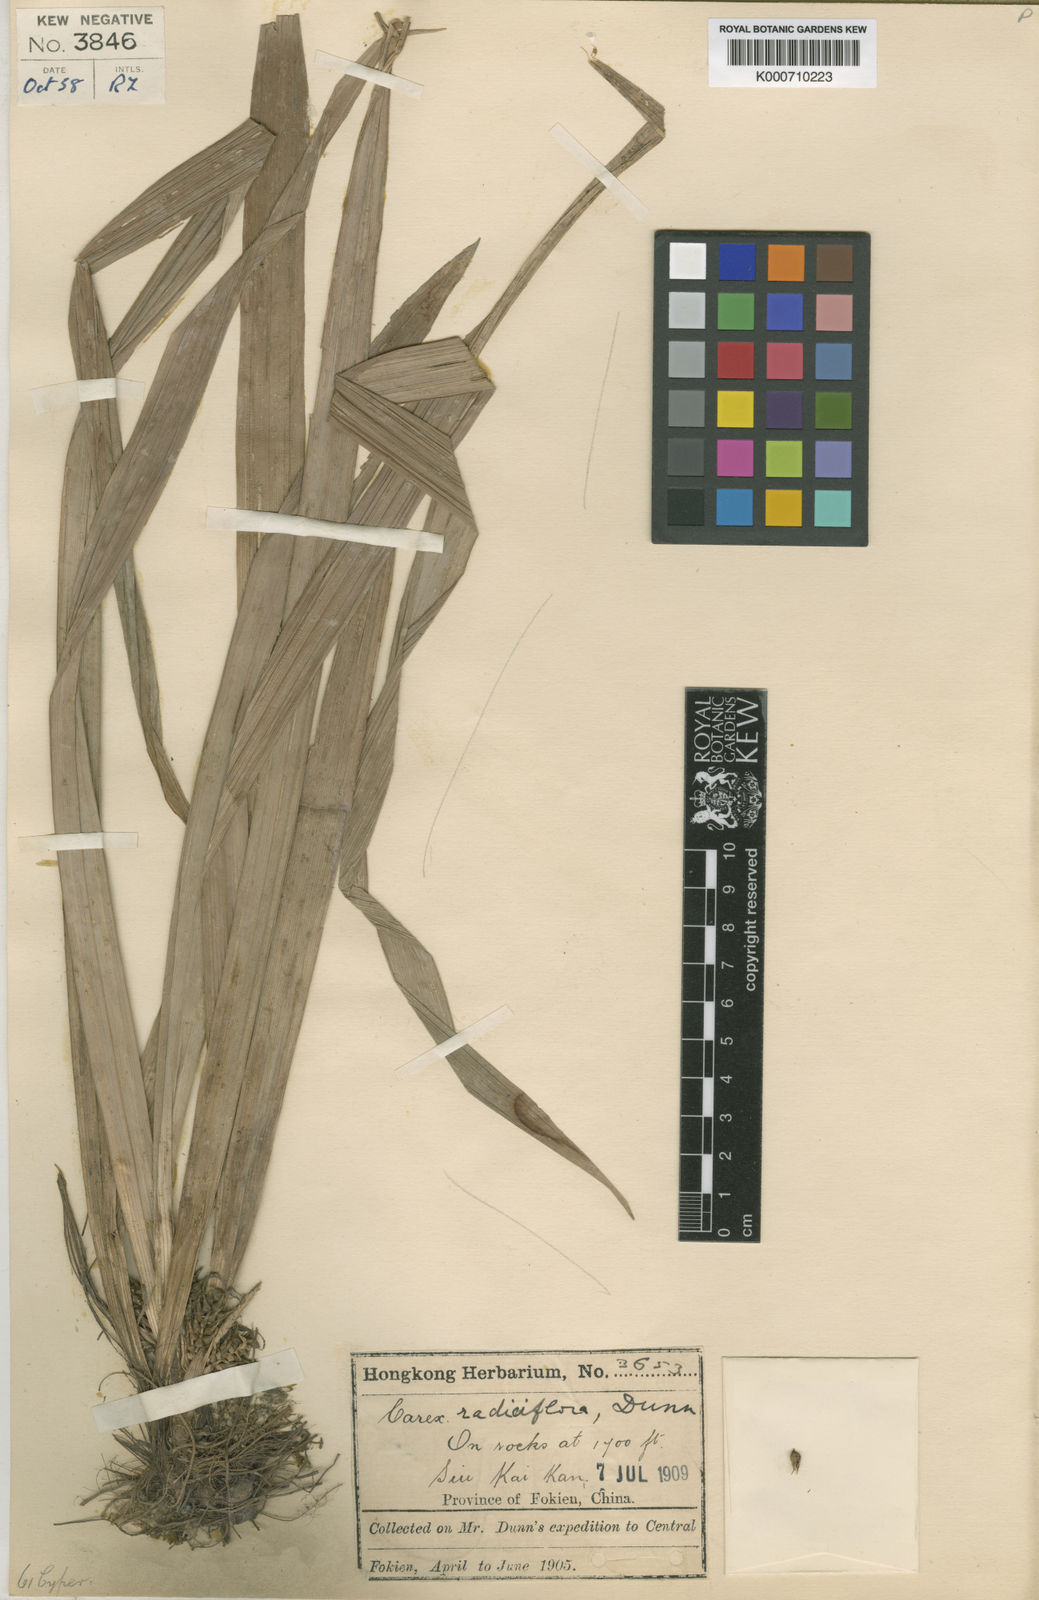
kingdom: Plantae
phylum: Tracheophyta
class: Liliopsida
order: Poales
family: Cyperaceae
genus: Carex
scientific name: Carex radiciflora
